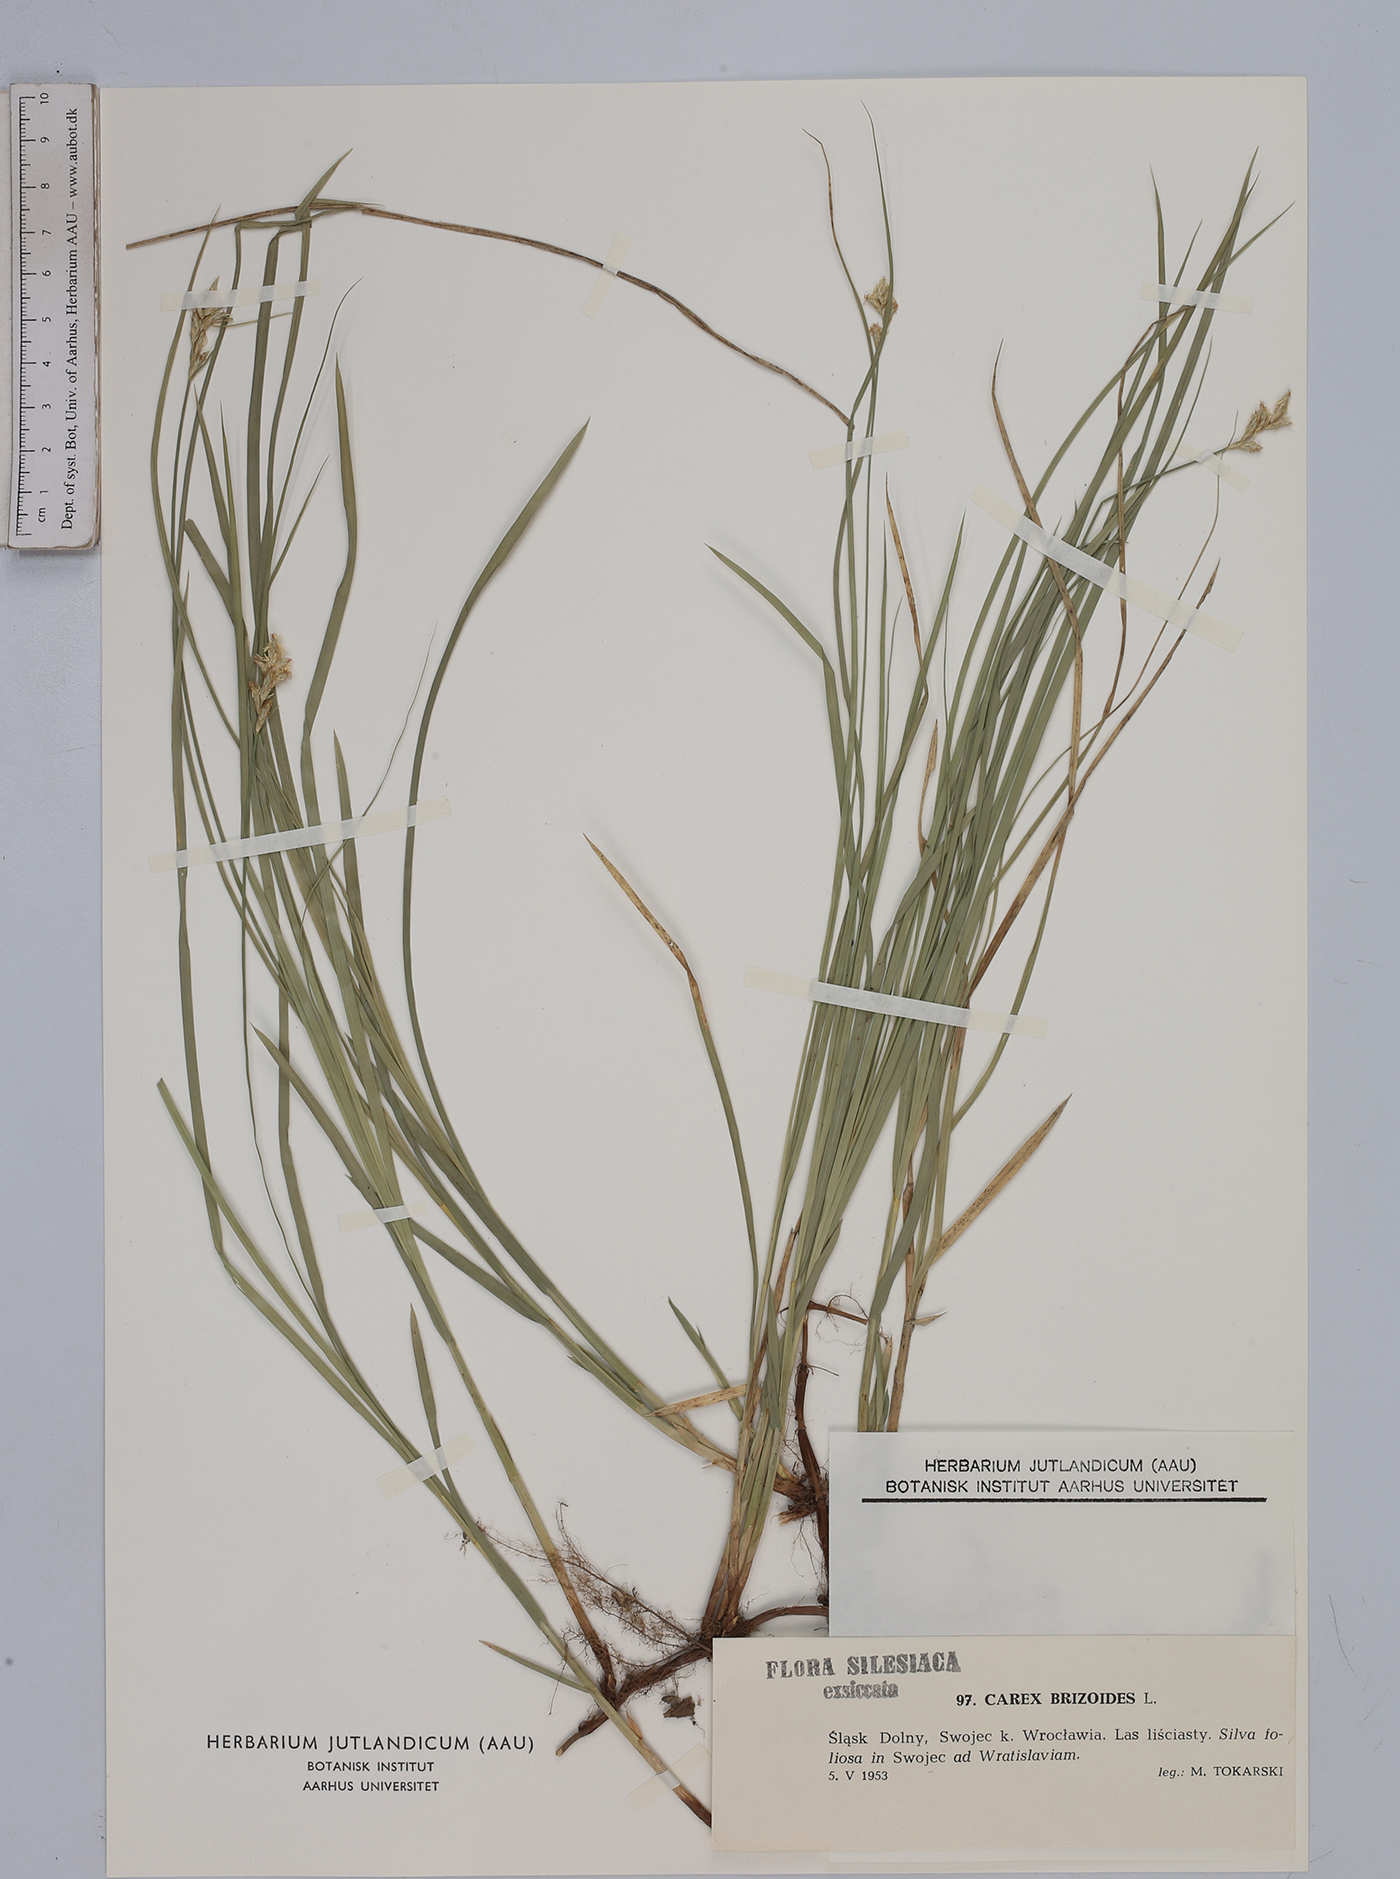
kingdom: Plantae
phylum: Tracheophyta
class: Liliopsida
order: Poales
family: Cyperaceae
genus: Carex
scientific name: Carex brizoides
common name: Quaking-grass sedge
